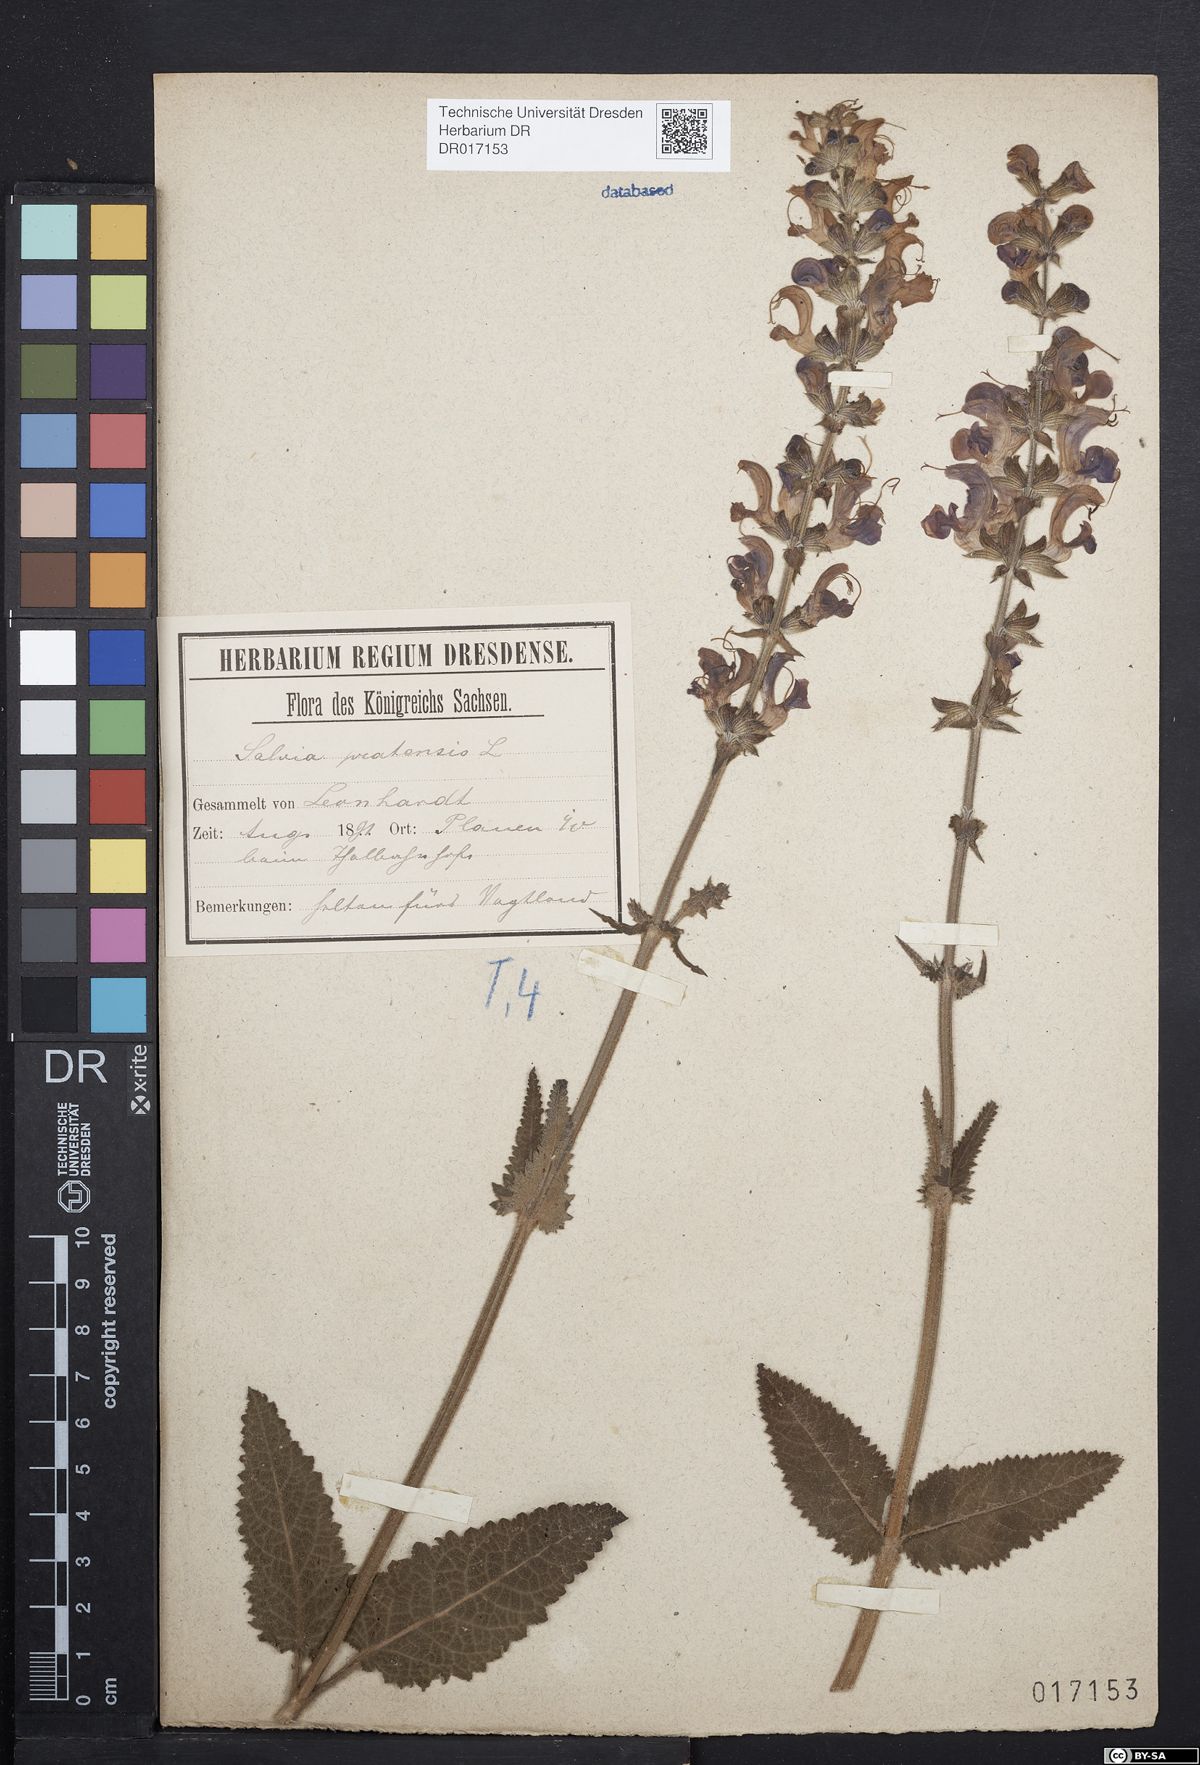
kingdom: Plantae
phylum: Tracheophyta
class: Magnoliopsida
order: Lamiales
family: Lamiaceae
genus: Salvia
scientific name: Salvia pratensis
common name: Meadow sage
